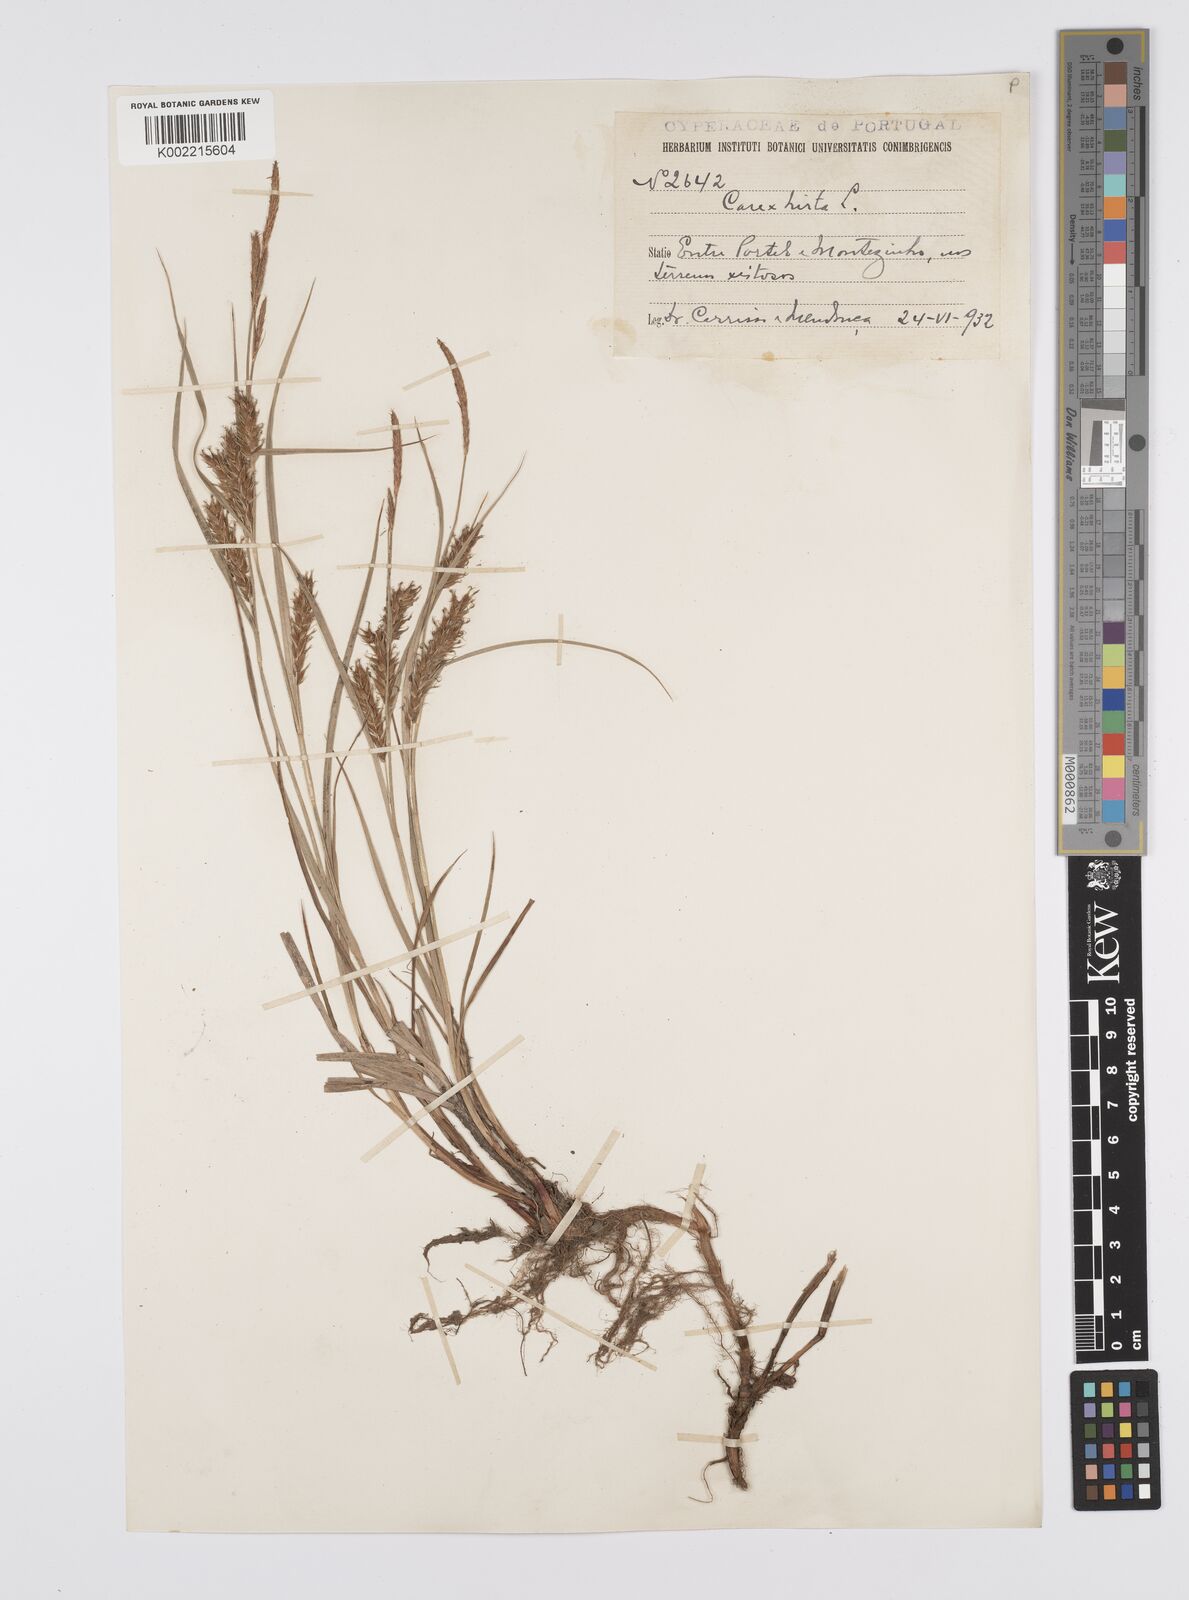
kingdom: Plantae
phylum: Tracheophyta
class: Liliopsida
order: Poales
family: Cyperaceae
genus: Carex
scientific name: Carex hirta
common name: Hairy sedge
